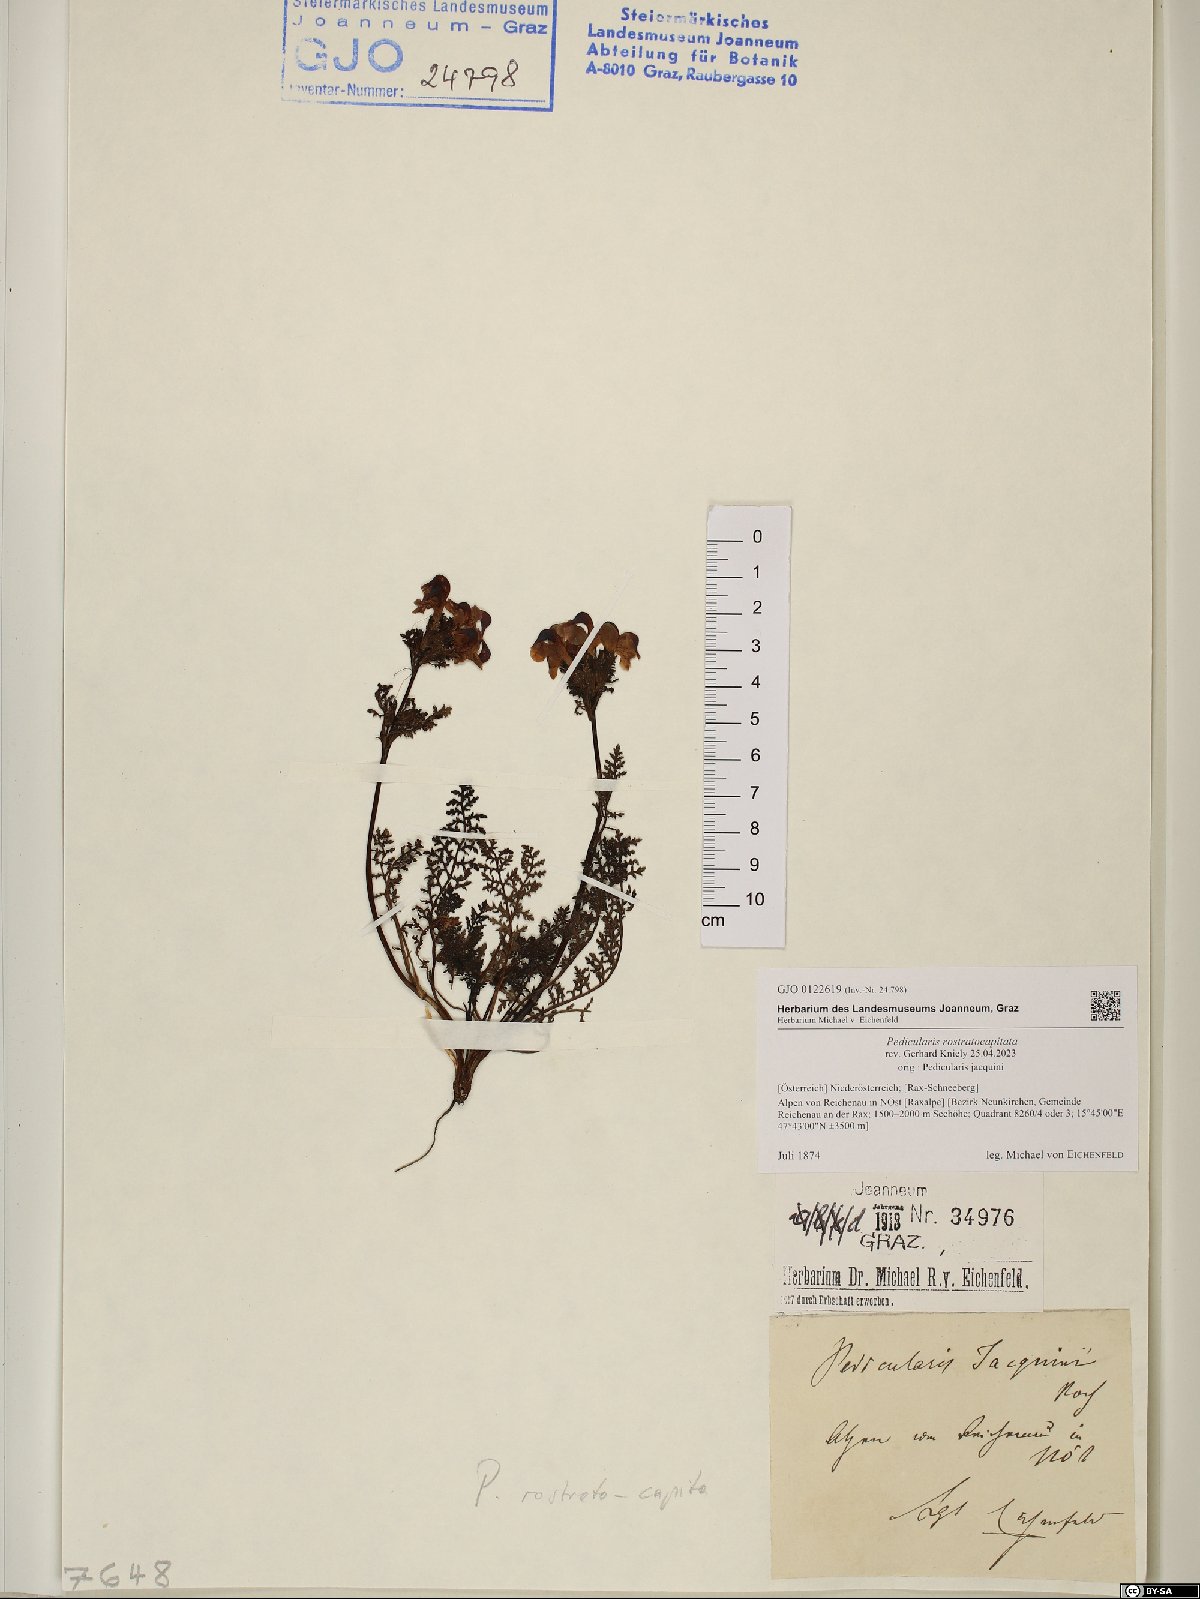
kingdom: Plantae
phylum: Tracheophyta
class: Magnoliopsida
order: Lamiales
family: Orobanchaceae
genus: Pedicularis
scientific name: Pedicularis rostratocapitata
